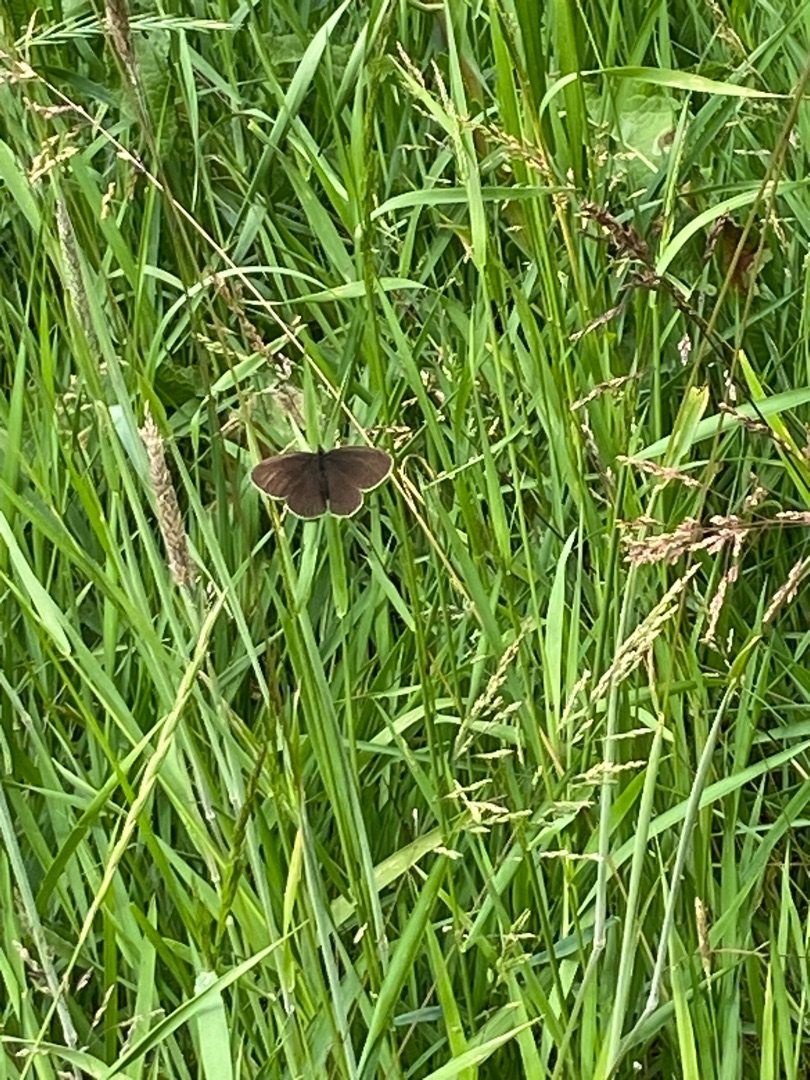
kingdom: Animalia
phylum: Arthropoda
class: Insecta
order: Lepidoptera
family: Nymphalidae
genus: Aphantopus
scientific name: Aphantopus hyperantus
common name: Engrandøje
